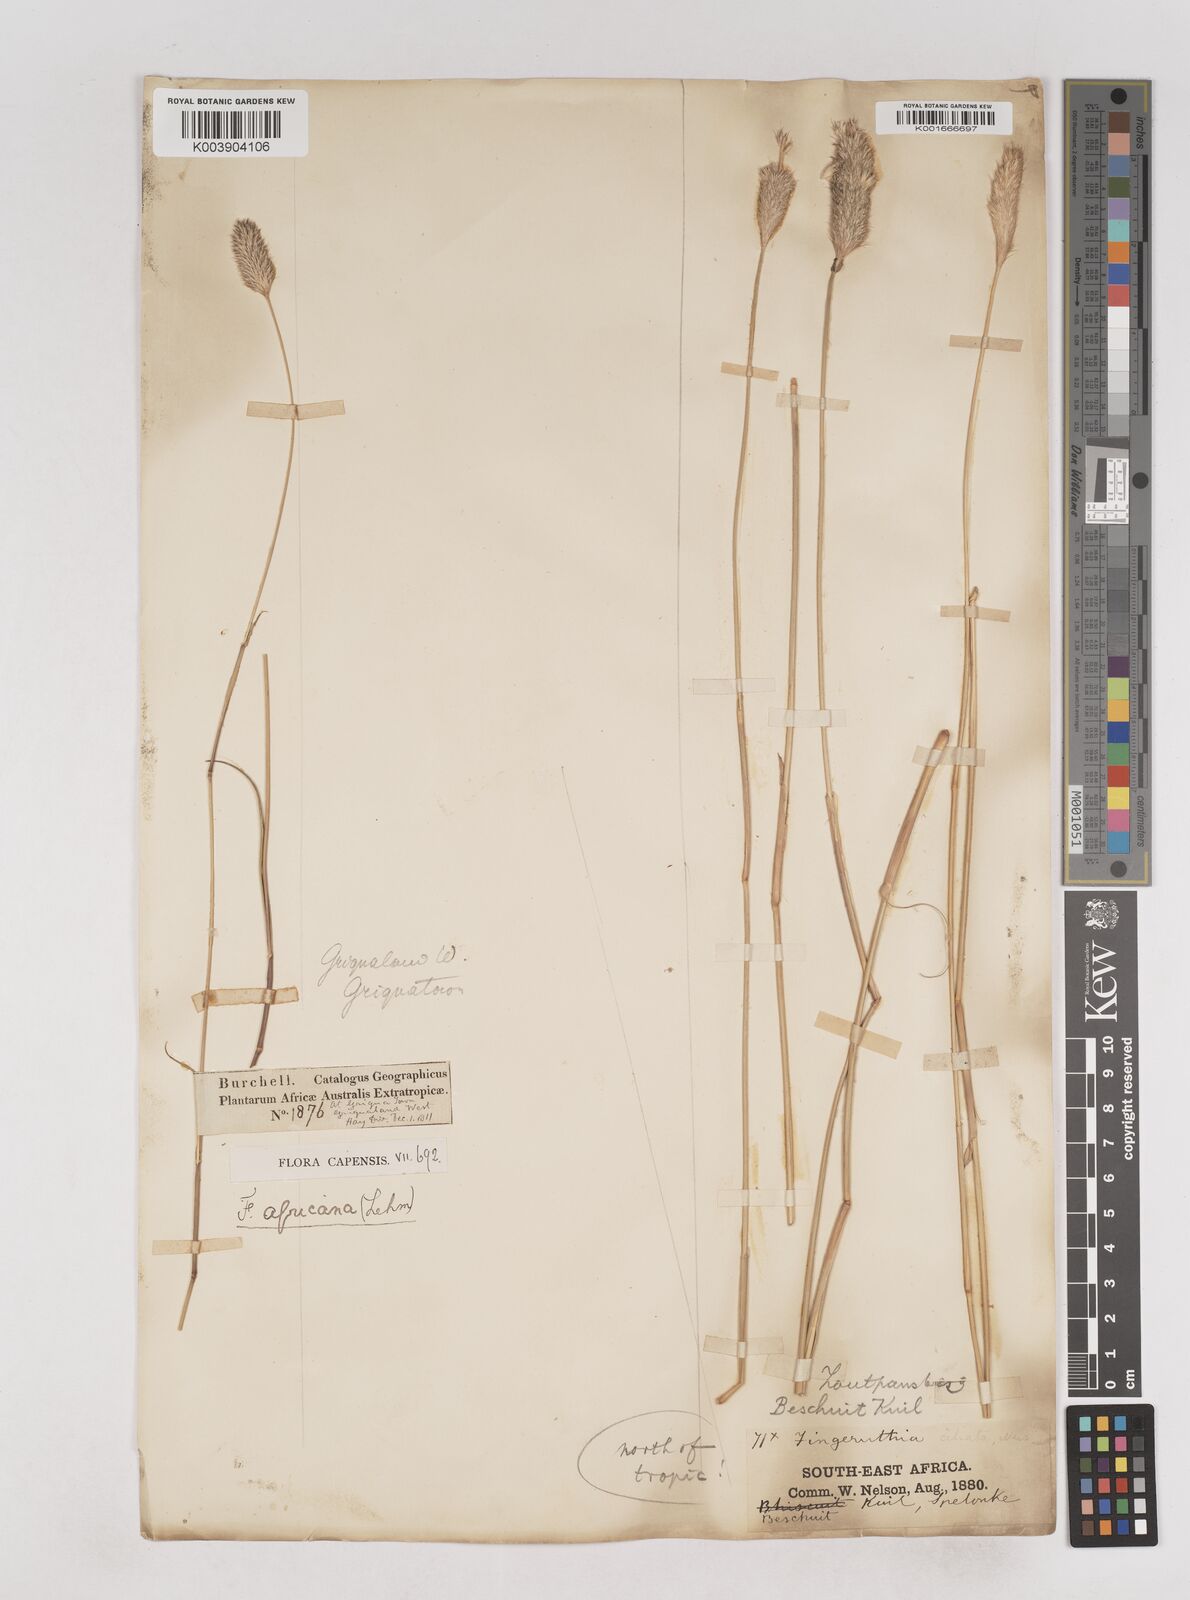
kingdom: Plantae
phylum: Tracheophyta
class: Liliopsida
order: Poales
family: Poaceae
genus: Fingerhuthia
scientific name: Fingerhuthia africana
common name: Zulu fescue
